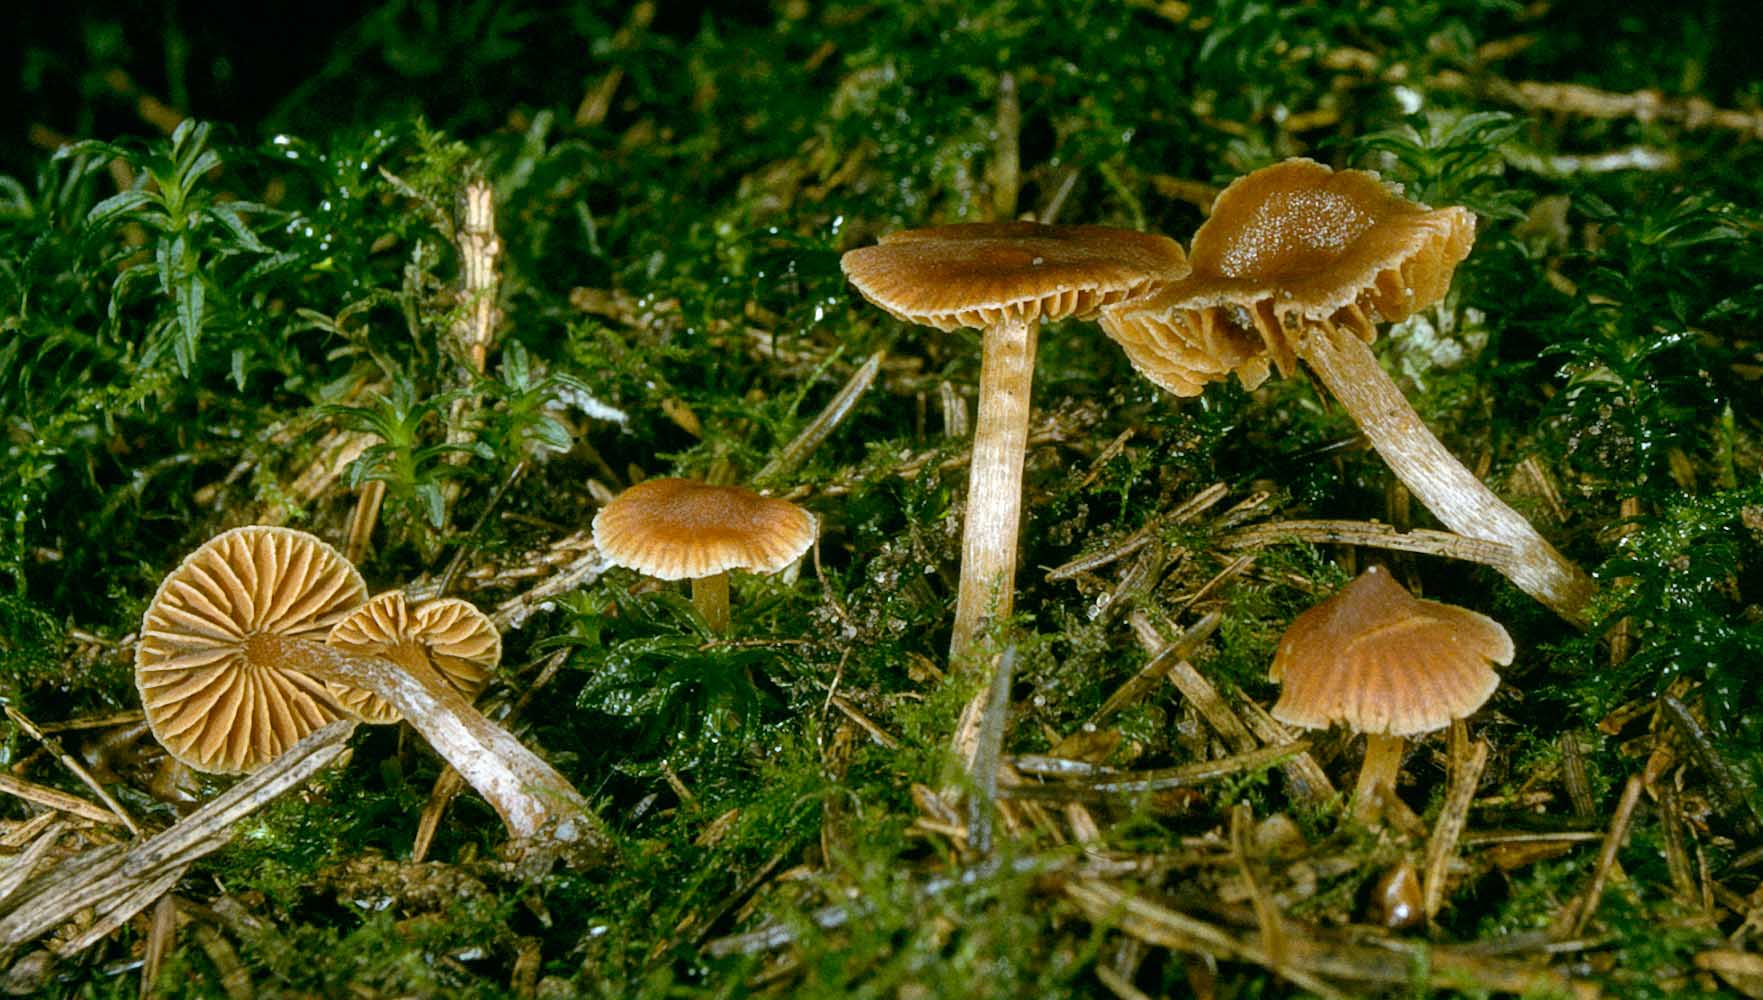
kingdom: Fungi
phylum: Basidiomycota
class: Agaricomycetes
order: Agaricales
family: Cortinariaceae
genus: Cortinarius
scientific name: Cortinarius
